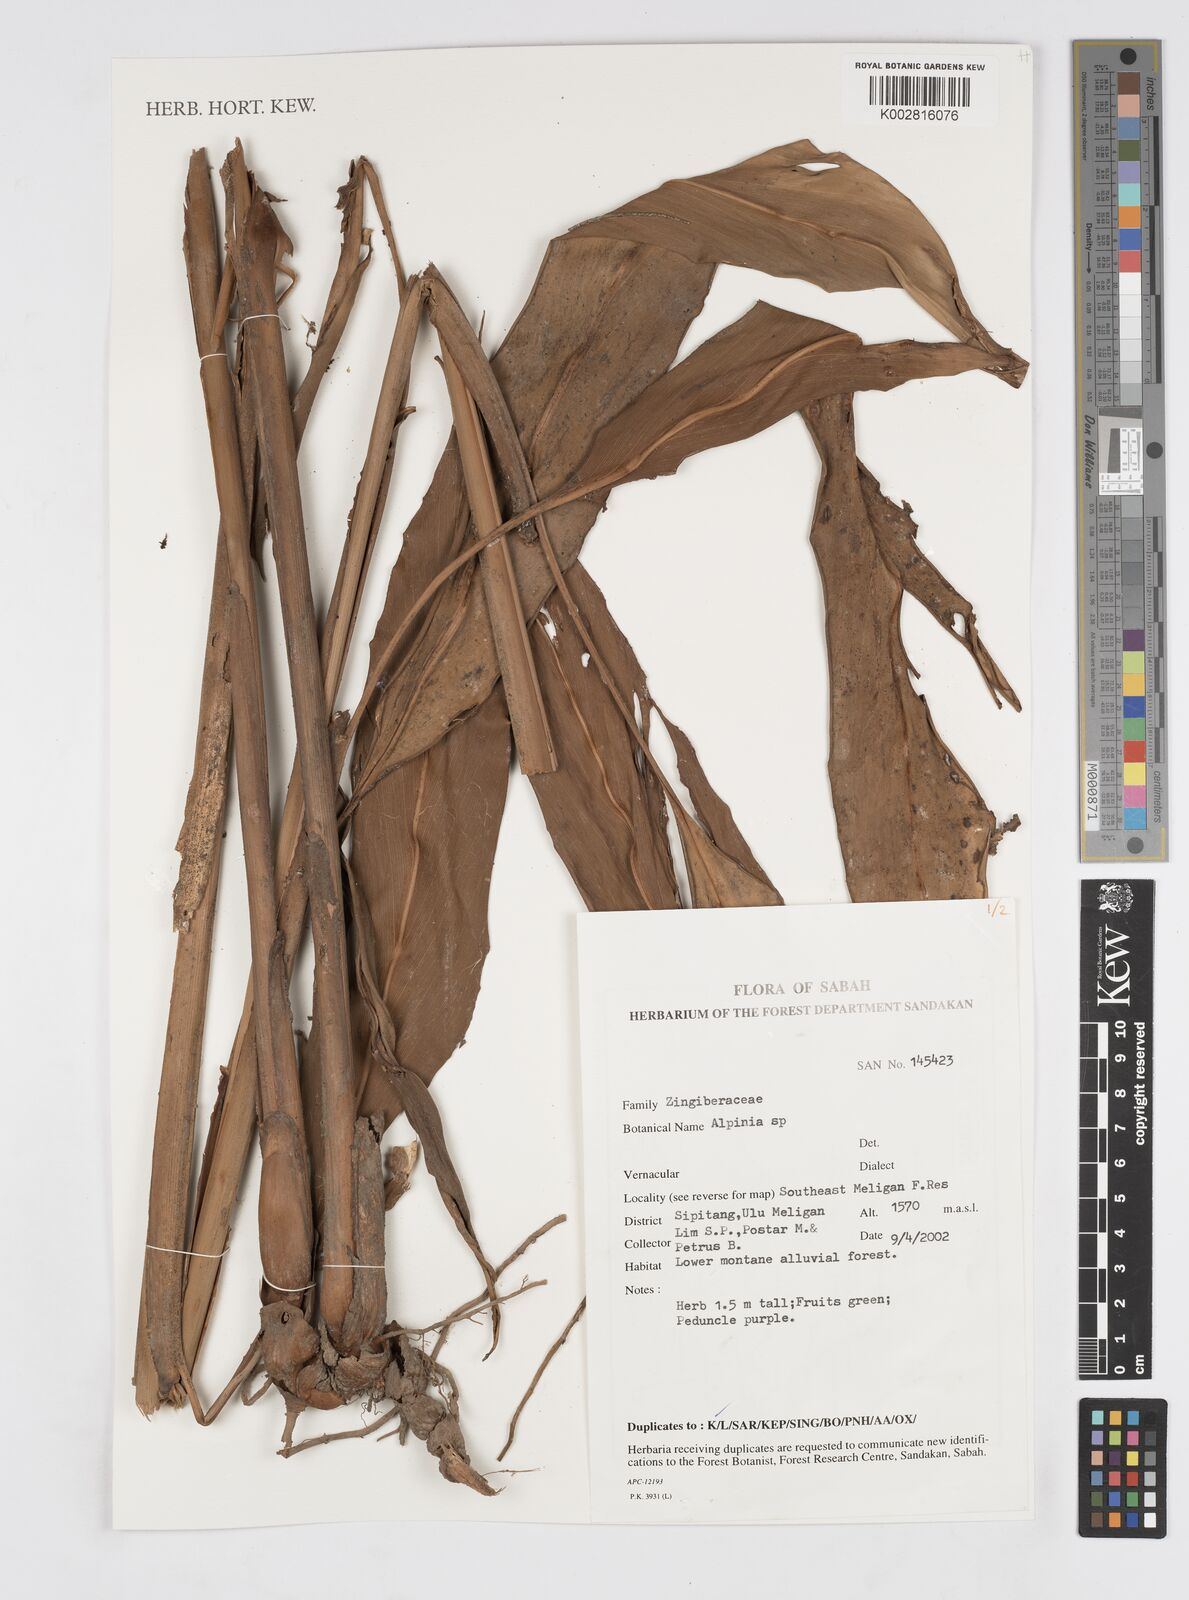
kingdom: Plantae
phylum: Tracheophyta
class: Liliopsida
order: Zingiberales
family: Zingiberaceae
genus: Alpinia
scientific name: Alpinia
